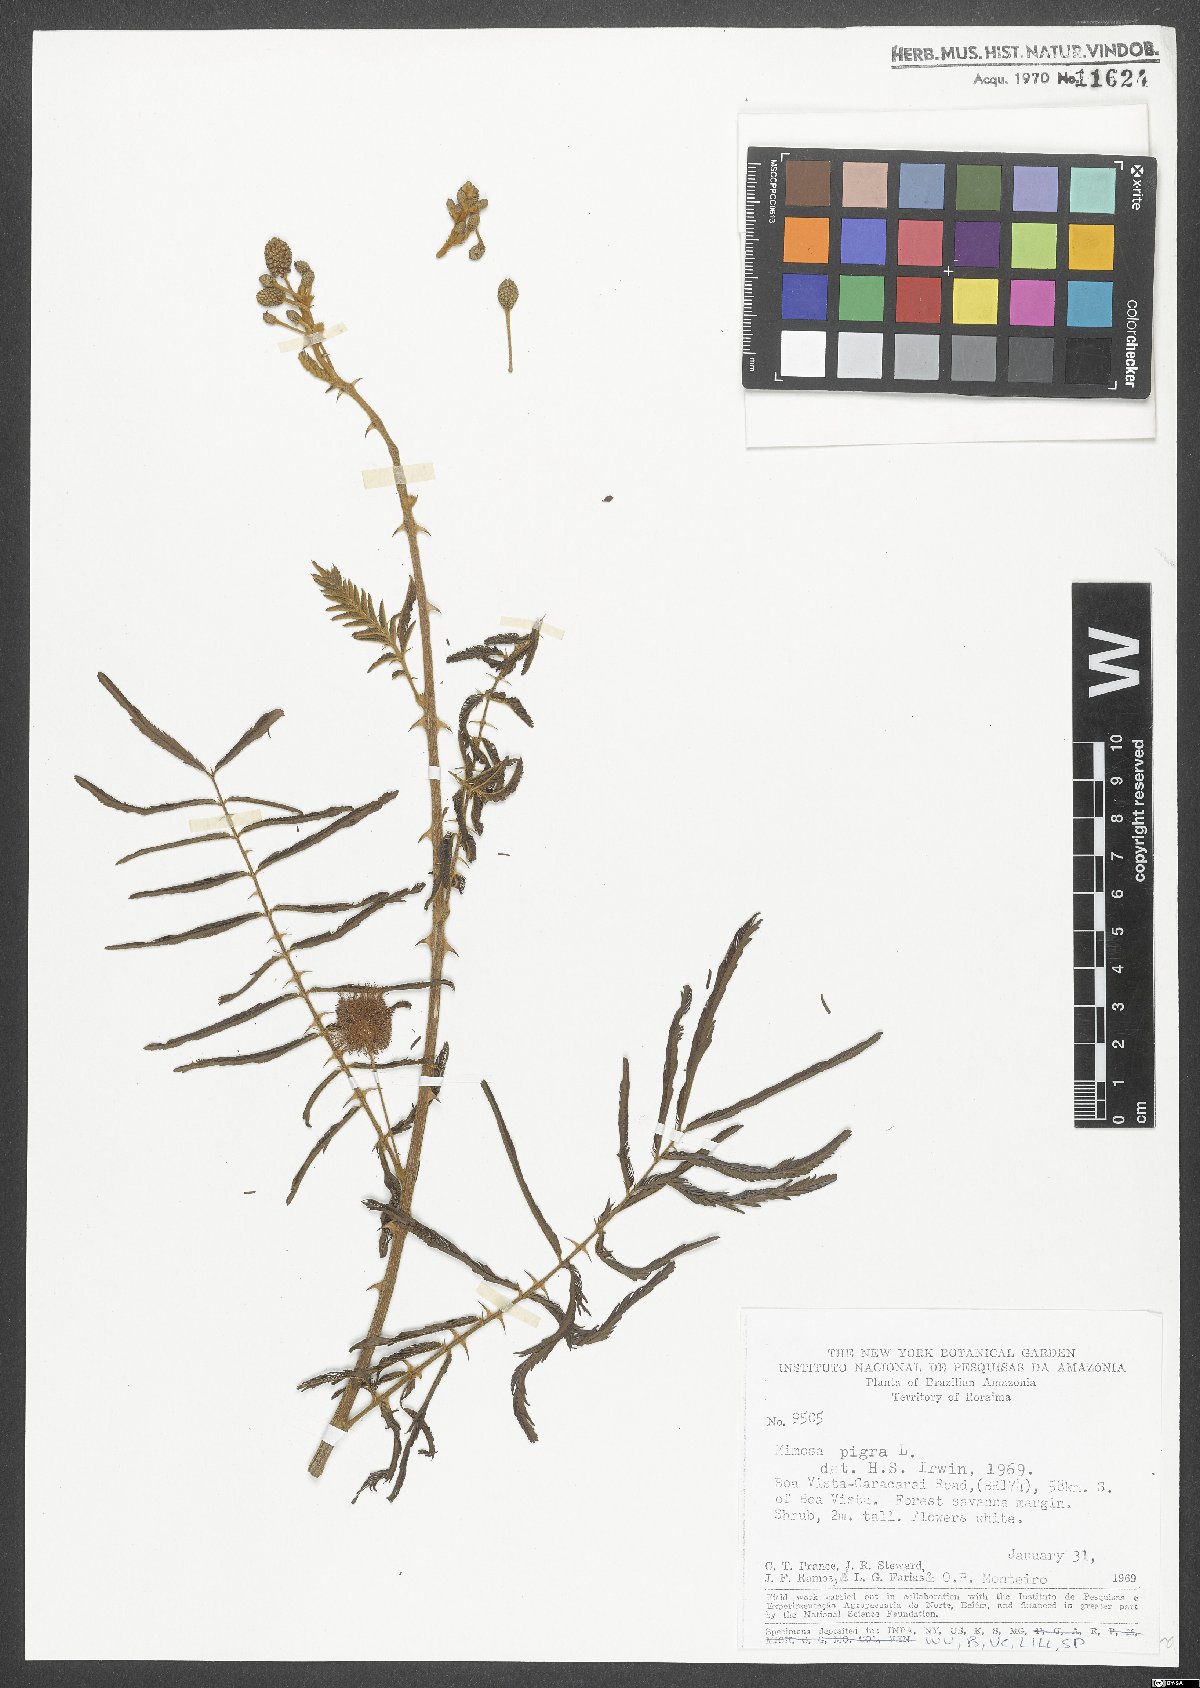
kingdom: Plantae
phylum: Tracheophyta
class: Magnoliopsida
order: Fabales
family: Fabaceae
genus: Mimosa
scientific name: Mimosa pigra
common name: Black mimosa
